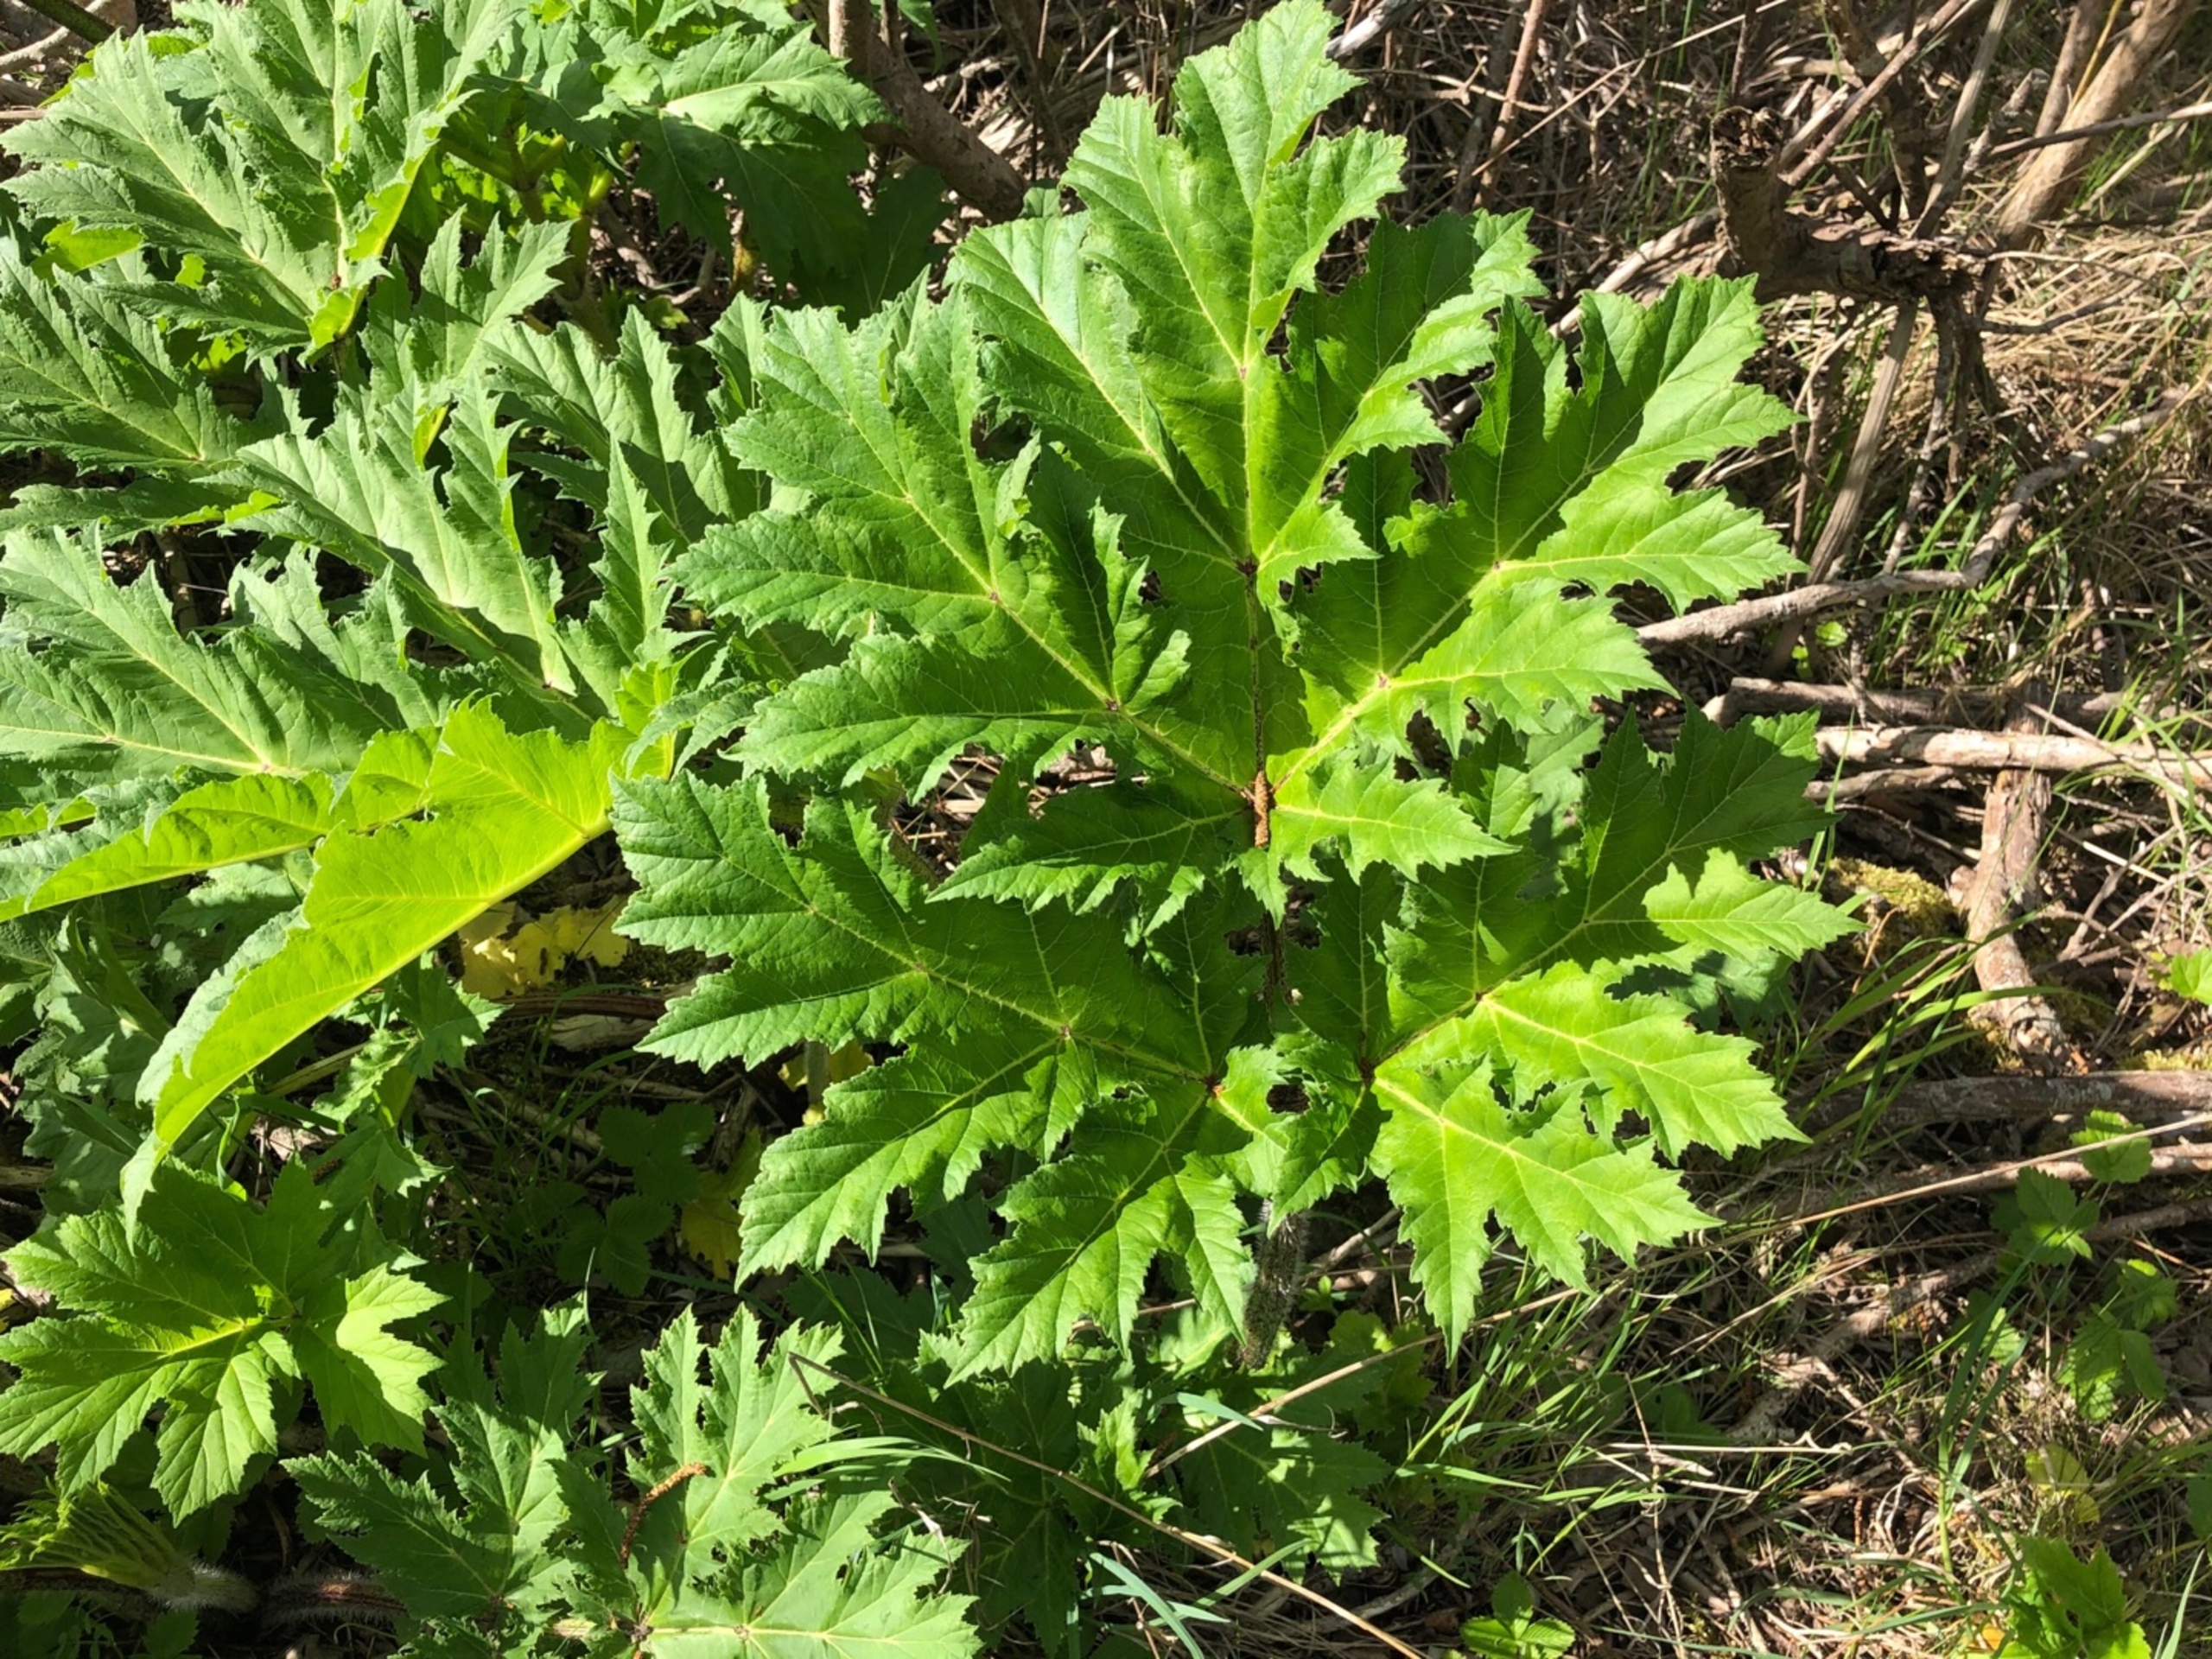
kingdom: Plantae
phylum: Tracheophyta
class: Magnoliopsida
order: Apiales
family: Apiaceae
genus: Heracleum
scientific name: Heracleum mantegazzianum
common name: Kæmpe-bjørneklo
